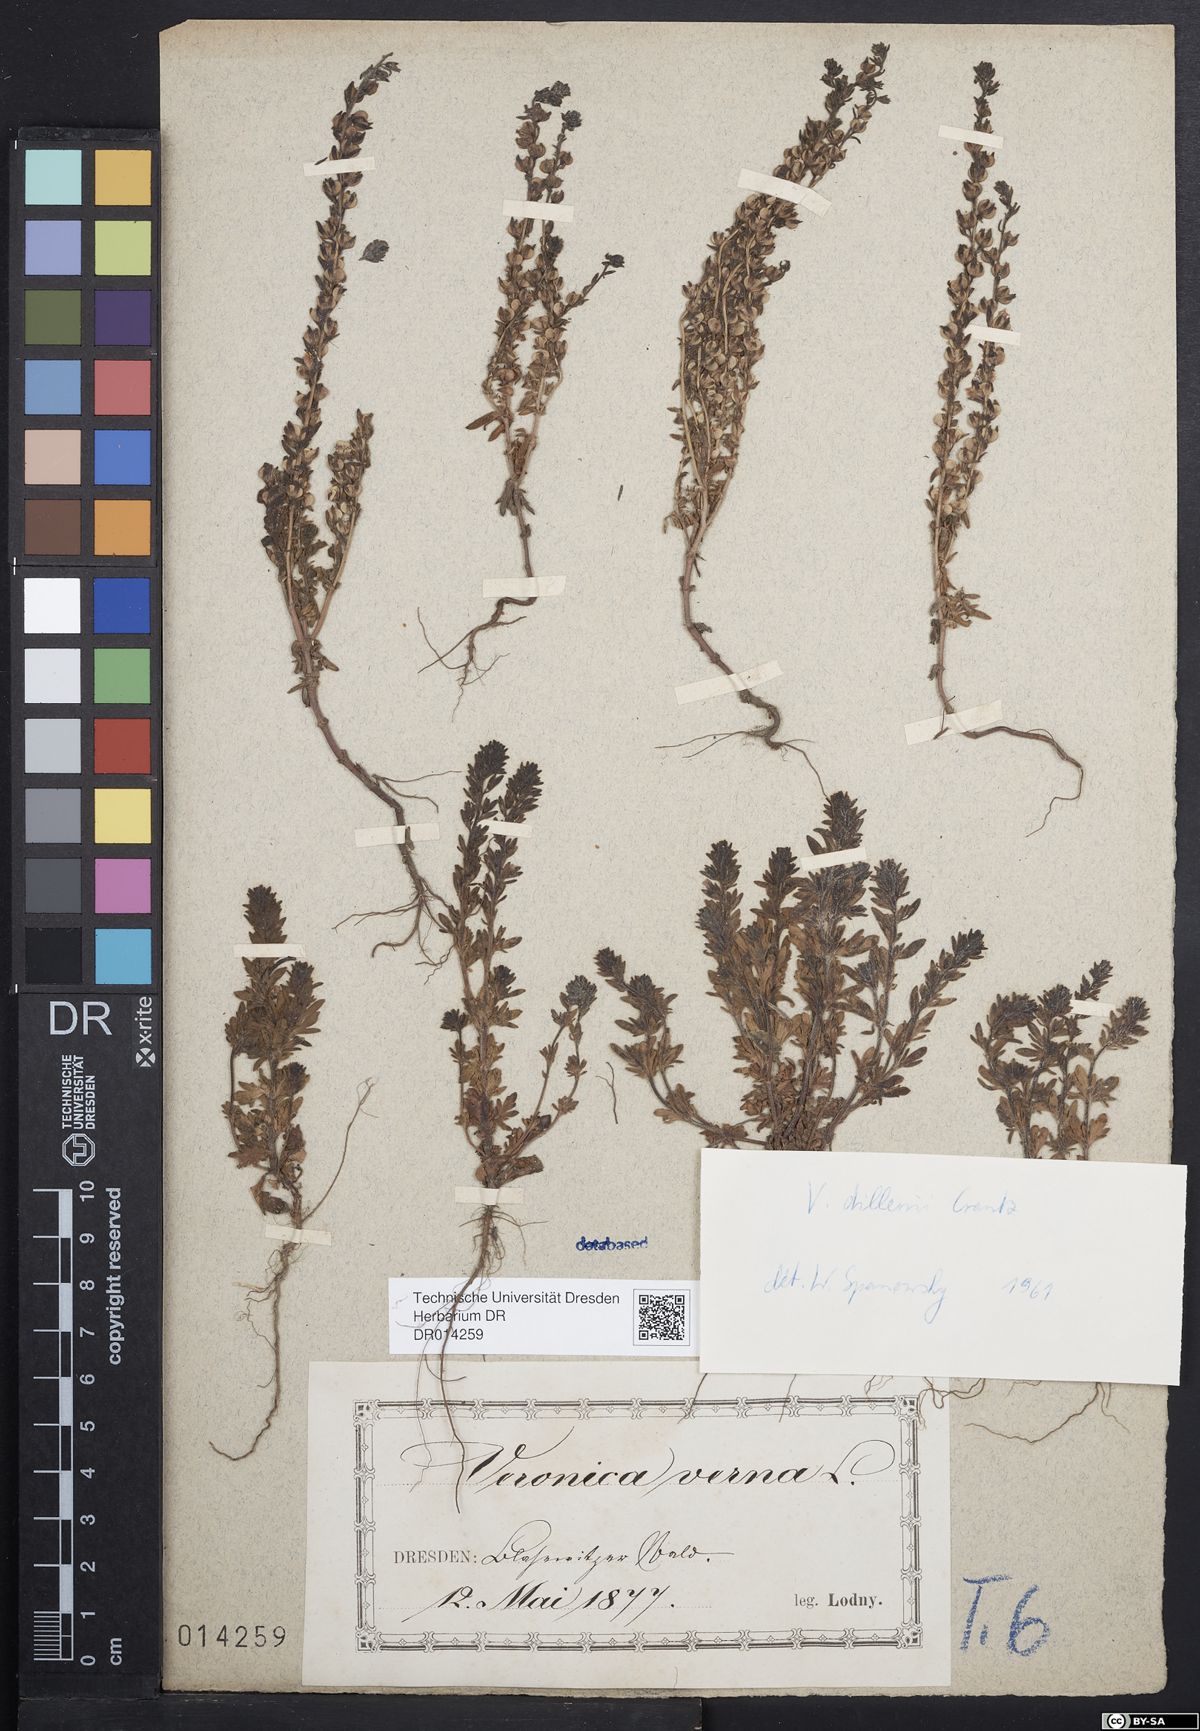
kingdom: Plantae
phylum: Tracheophyta
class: Magnoliopsida
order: Lamiales
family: Plantaginaceae
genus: Veronica
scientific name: Veronica dillenii
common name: Dillenius' speedwell
